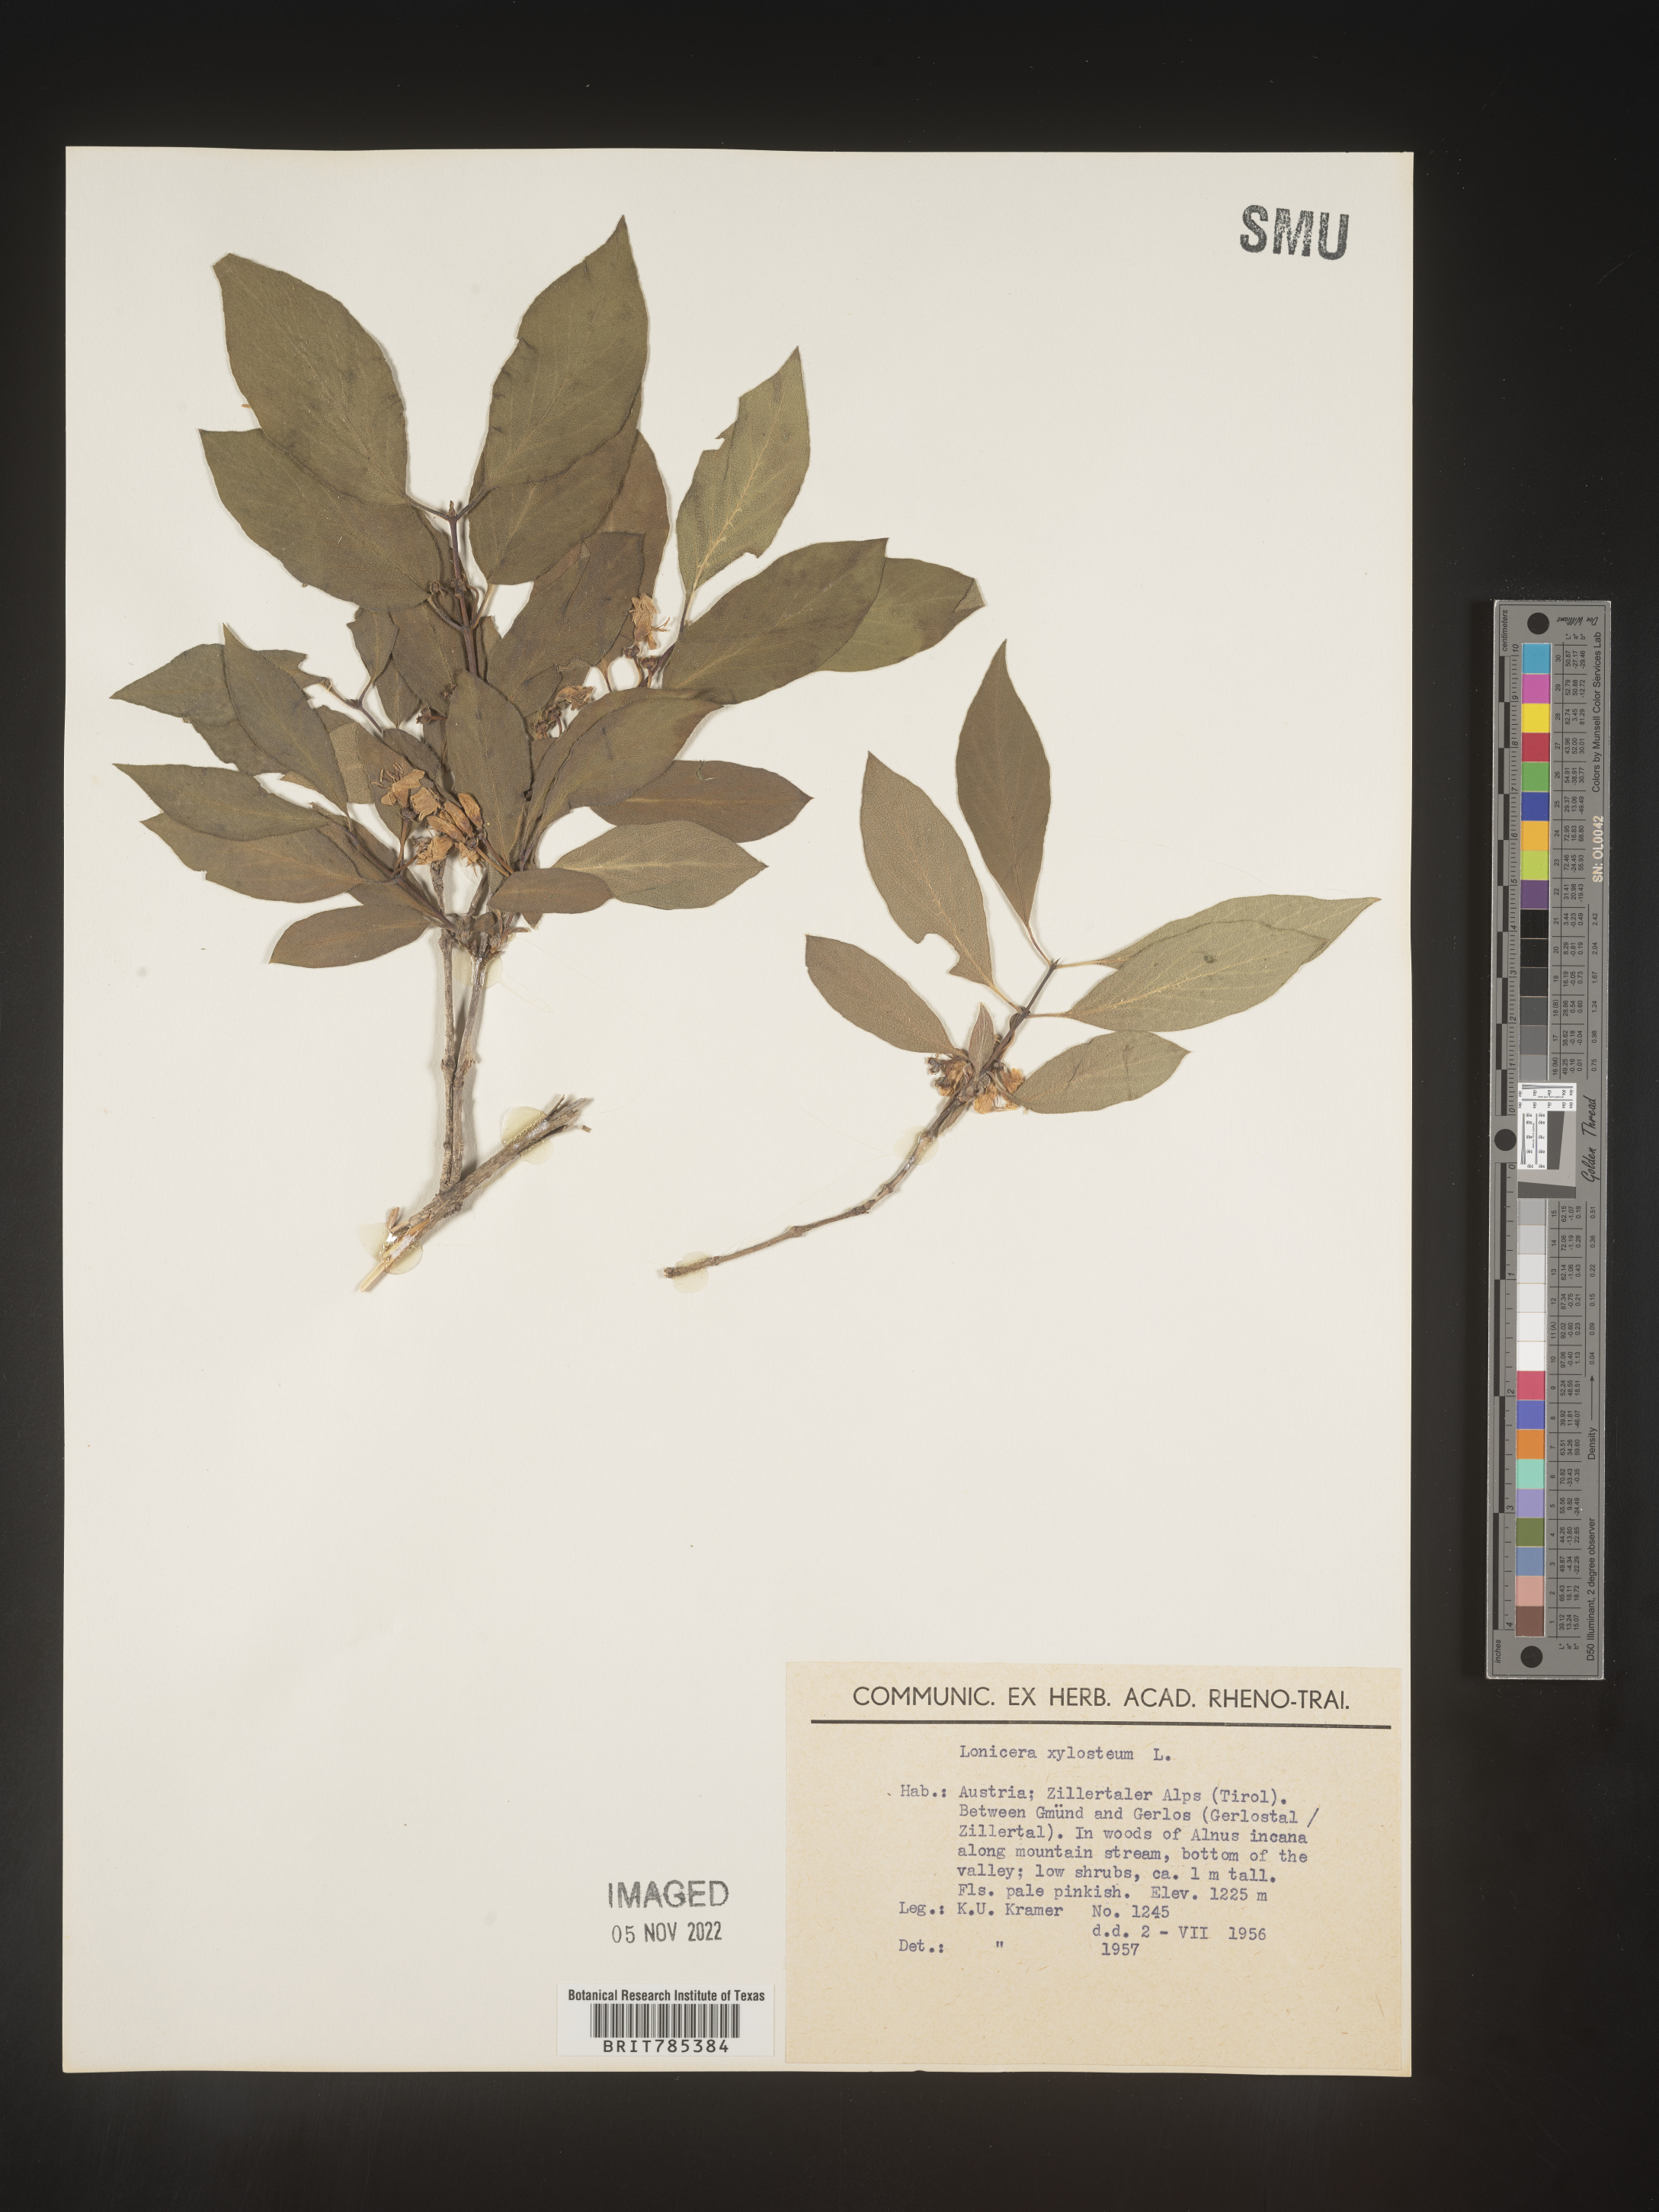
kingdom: Plantae
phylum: Tracheophyta
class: Magnoliopsida
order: Dipsacales
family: Caprifoliaceae
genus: Lonicera
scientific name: Lonicera
